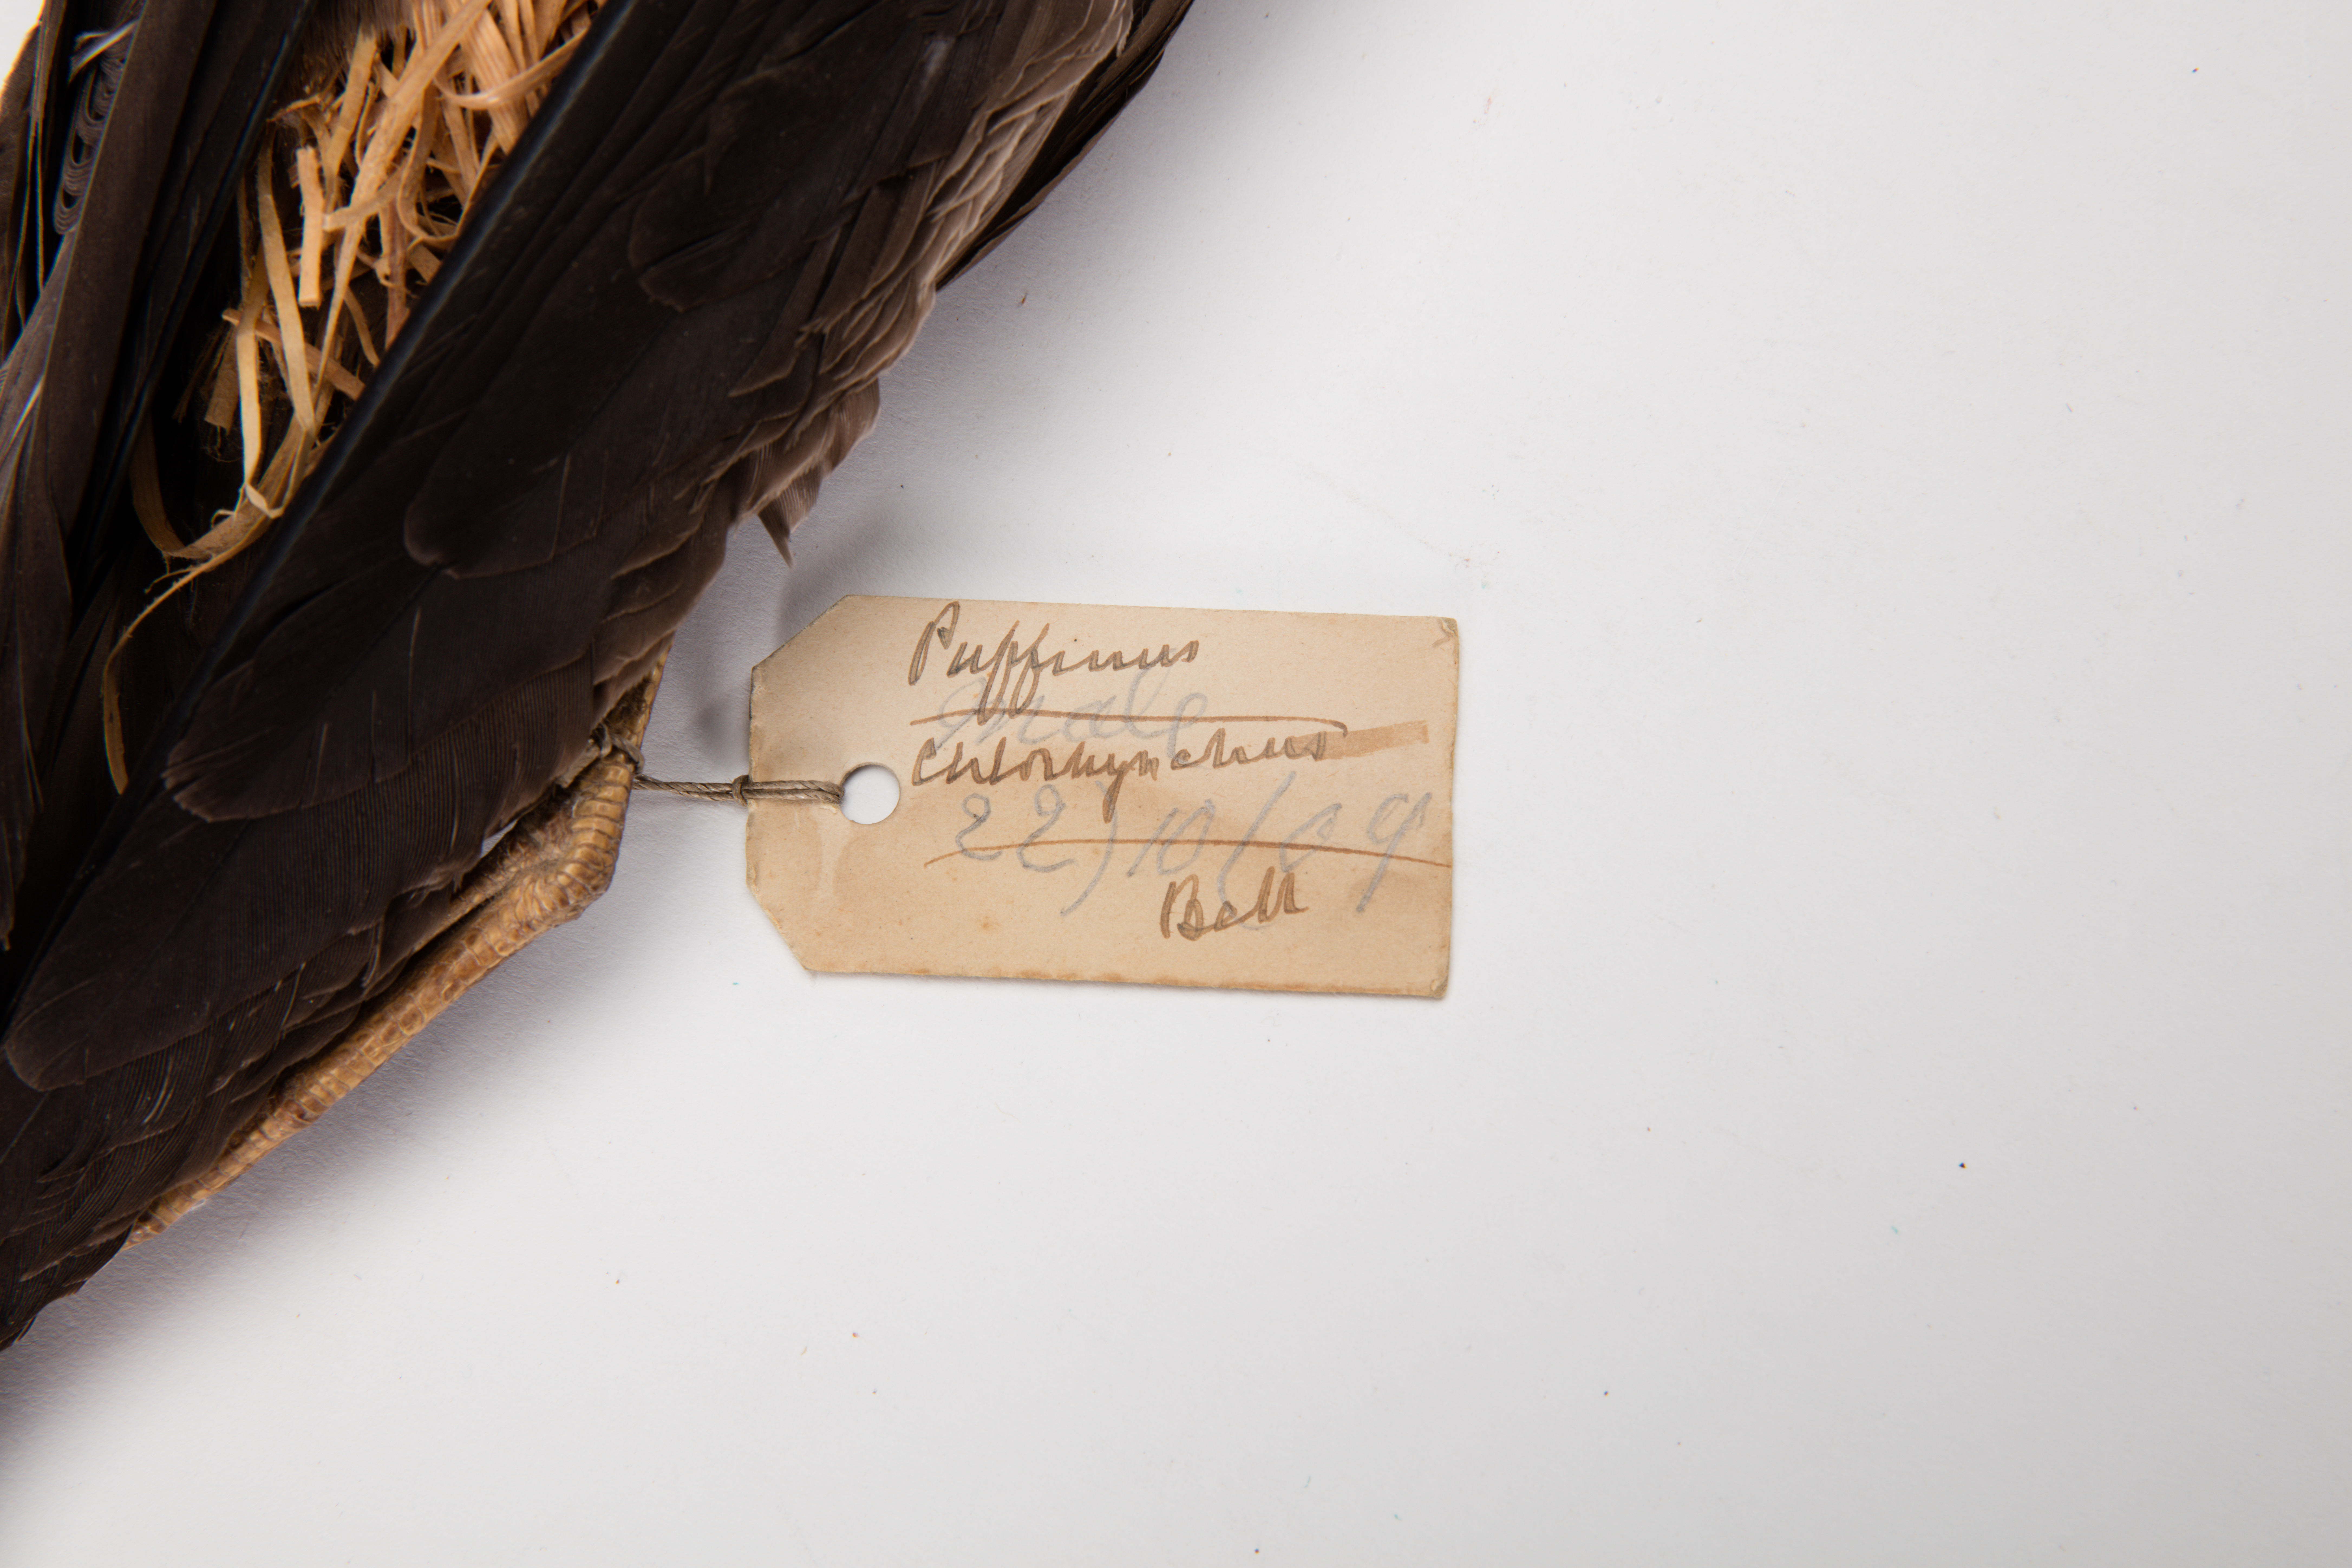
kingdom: Animalia
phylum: Chordata
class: Aves
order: Procellariiformes
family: Procellariidae
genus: Puffinus
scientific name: Puffinus pacificus
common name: Wedge-tailed shearwater
